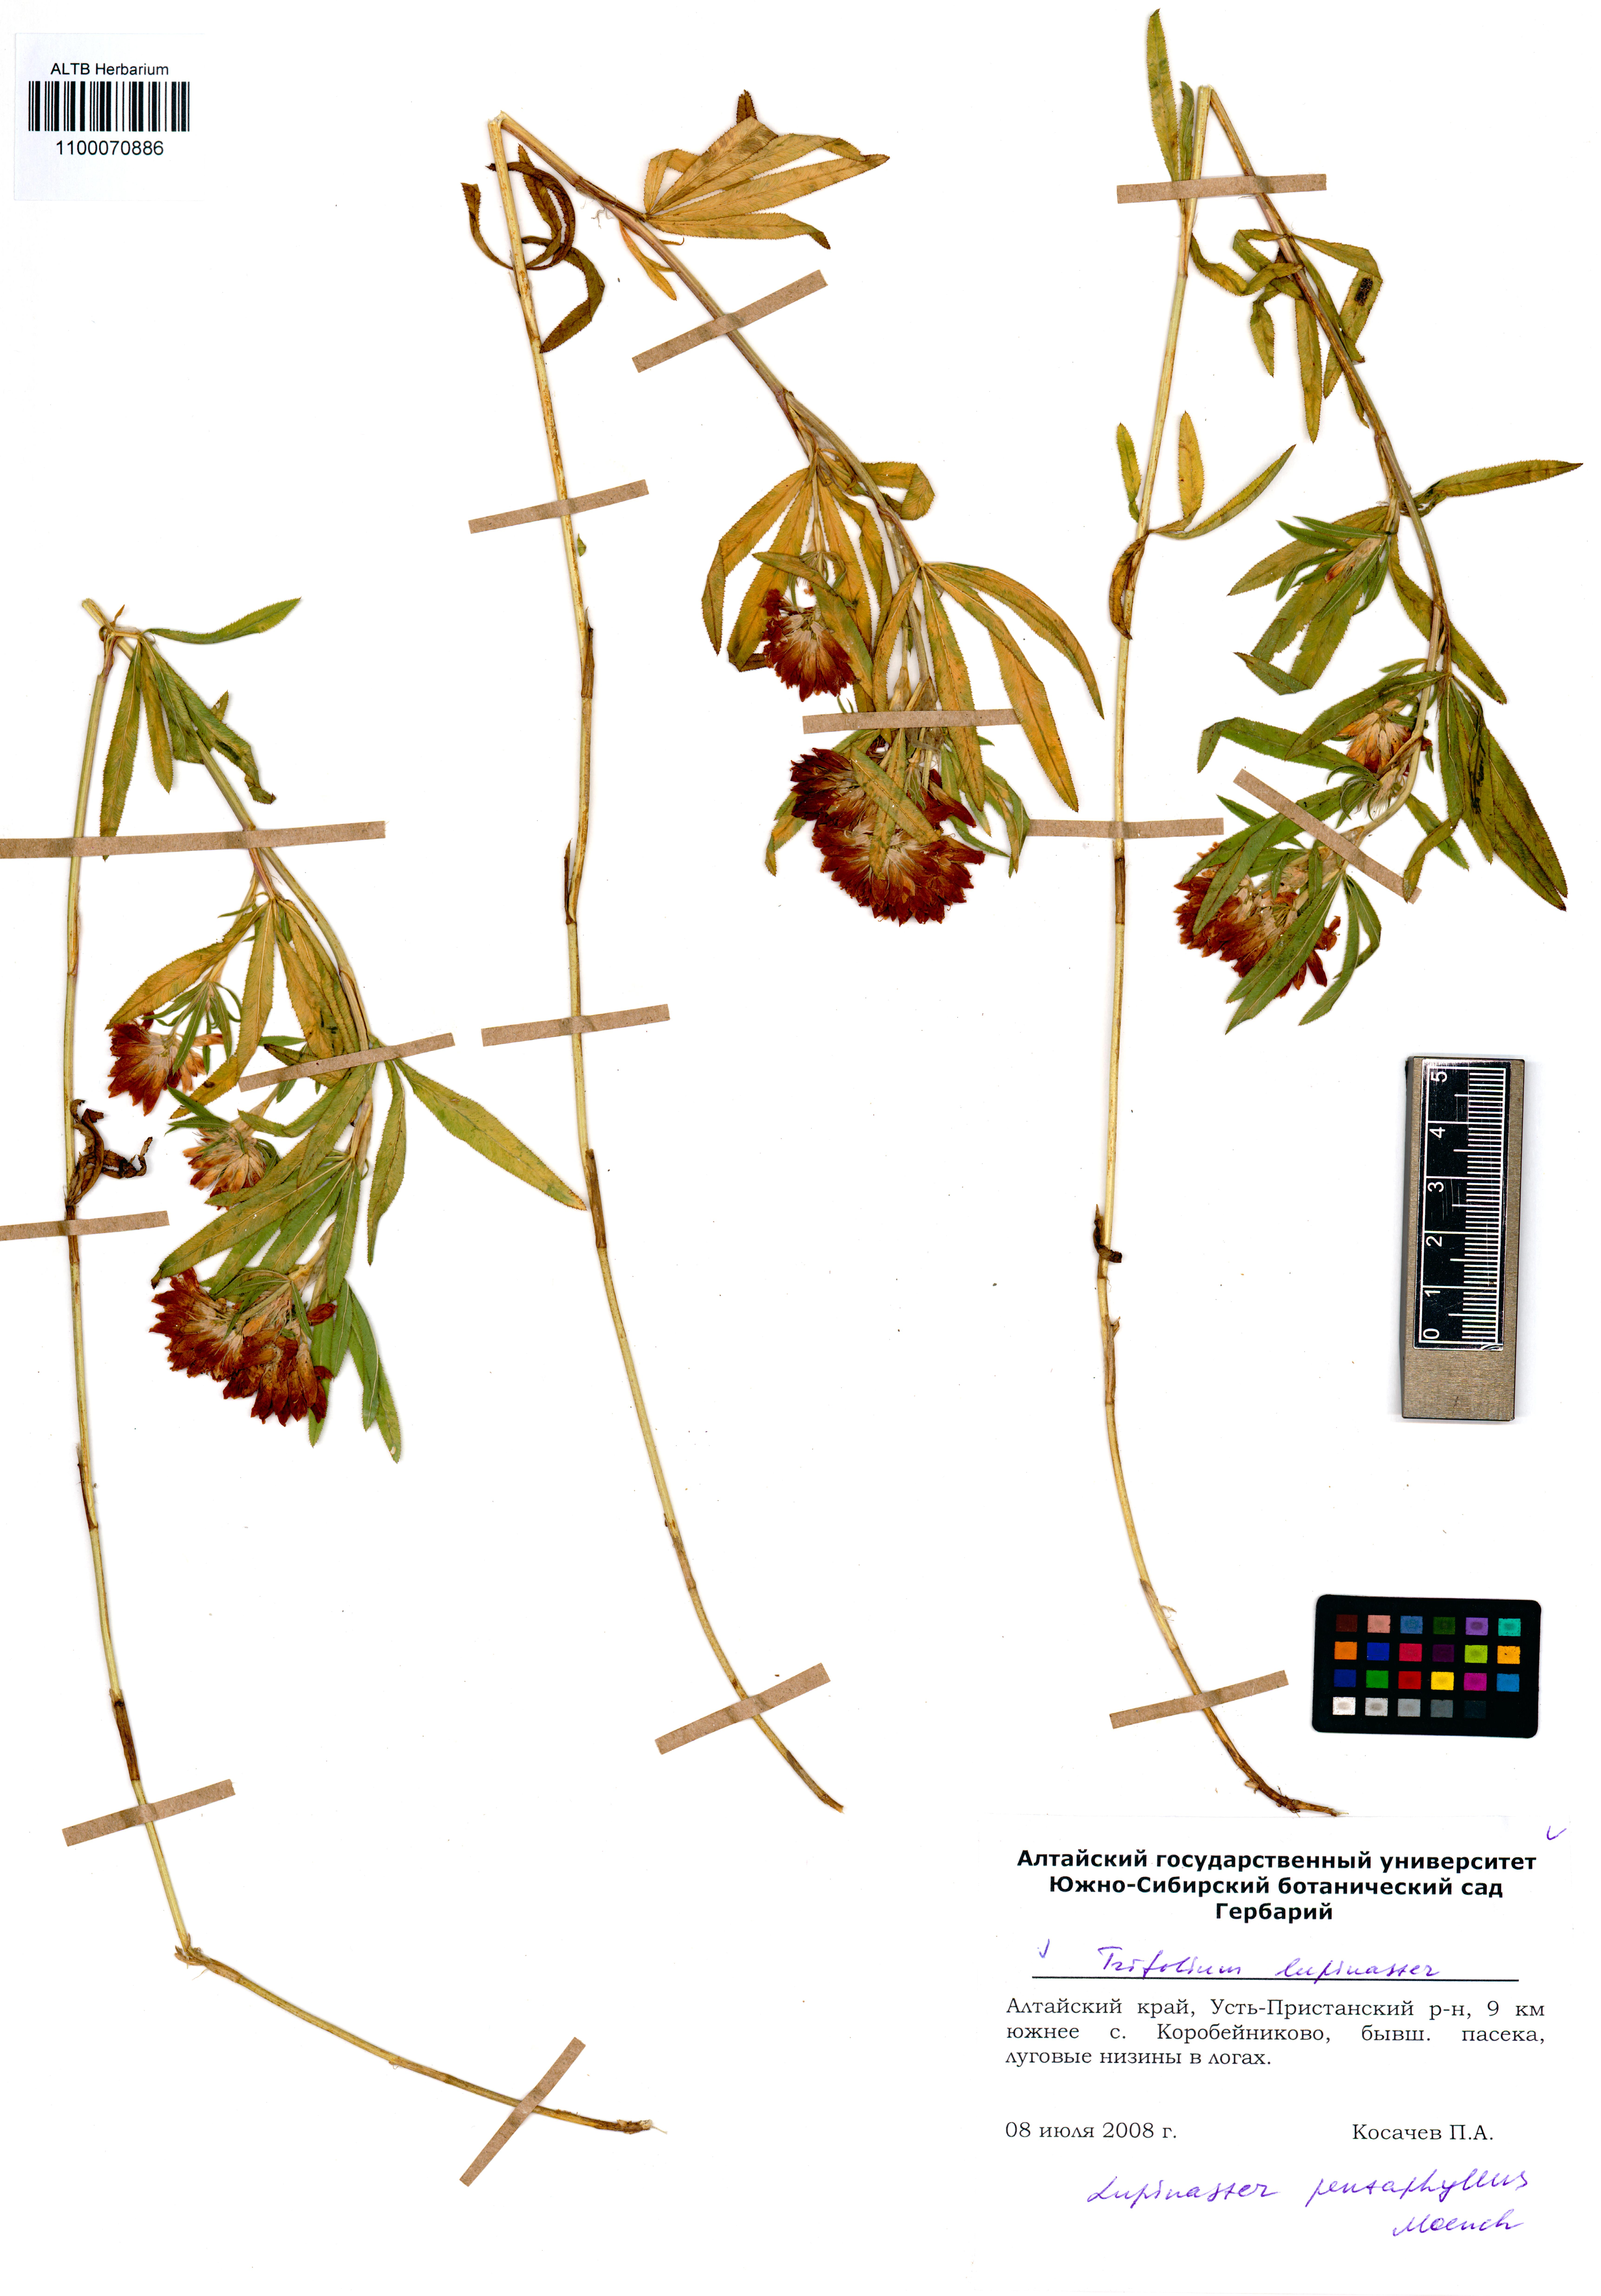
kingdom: Plantae
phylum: Tracheophyta
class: Magnoliopsida
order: Fabales
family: Fabaceae
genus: Trifolium
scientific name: Trifolium lupinaster
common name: Lupine clover
